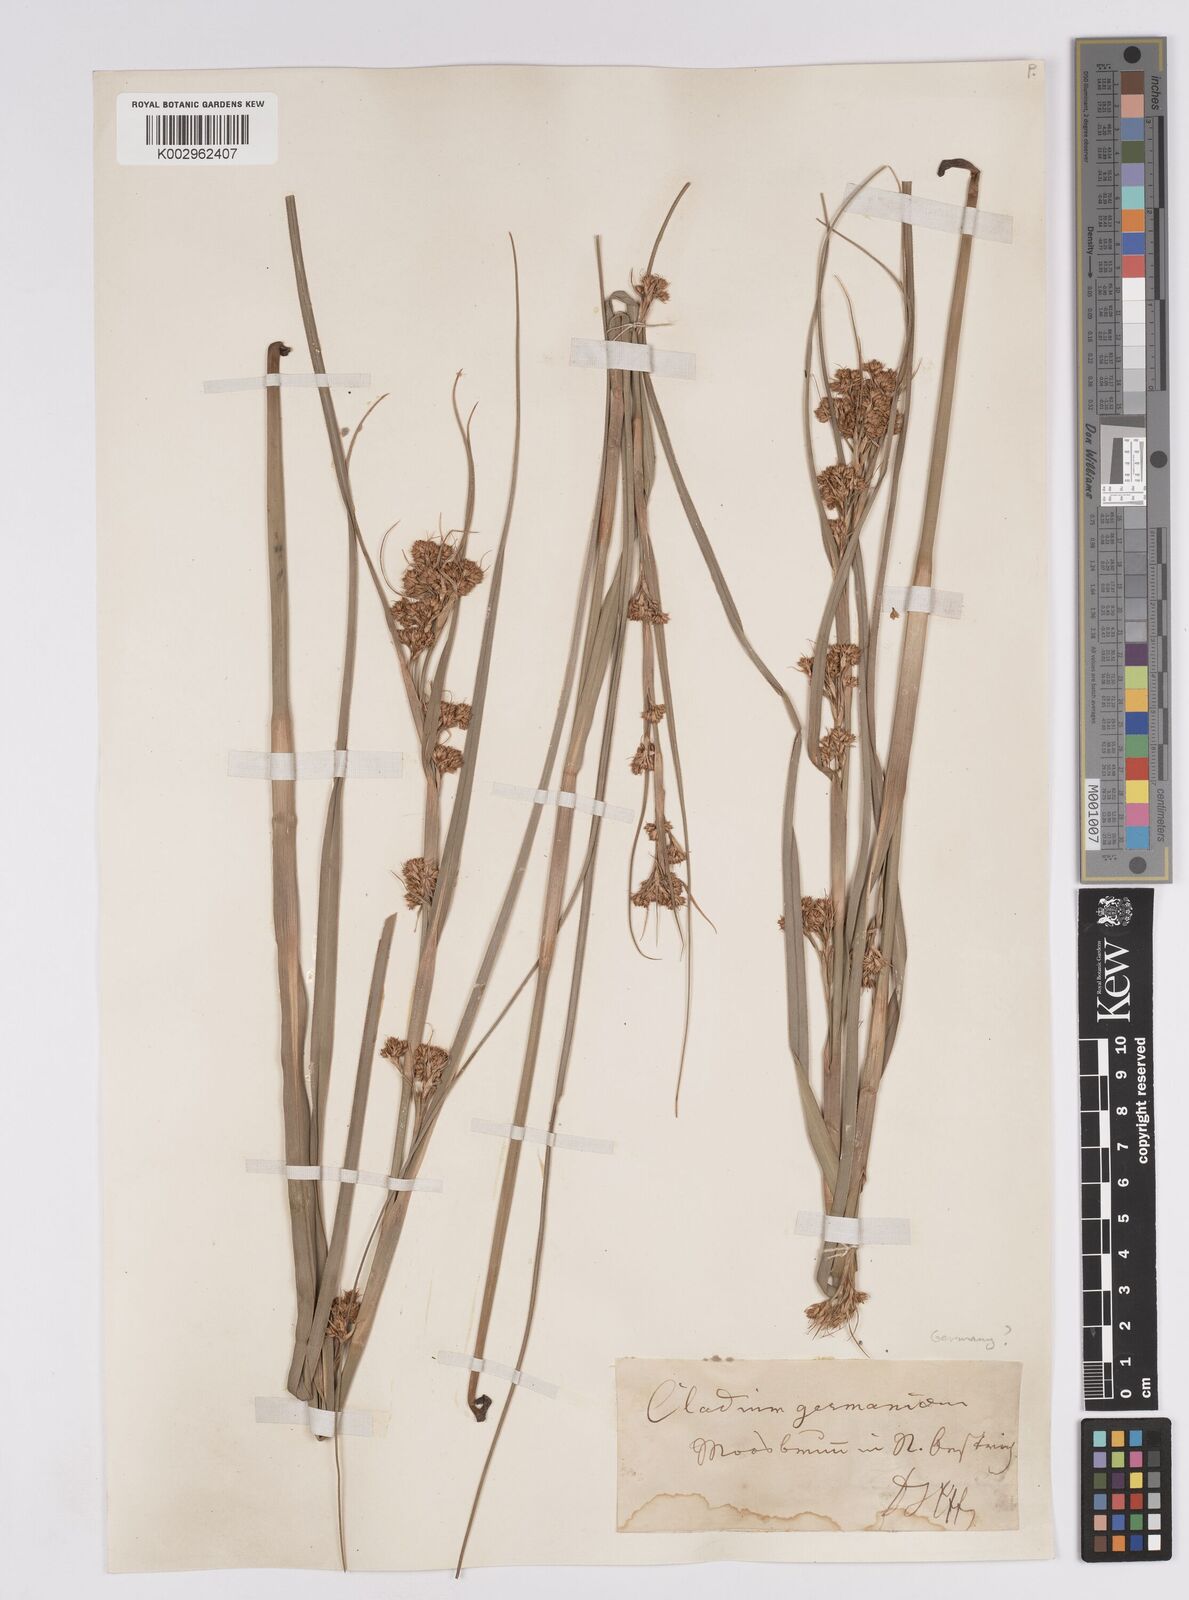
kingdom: Plantae
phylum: Tracheophyta
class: Liliopsida
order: Poales
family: Cyperaceae
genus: Cladium
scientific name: Cladium mariscus
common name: Great fen-sedge
